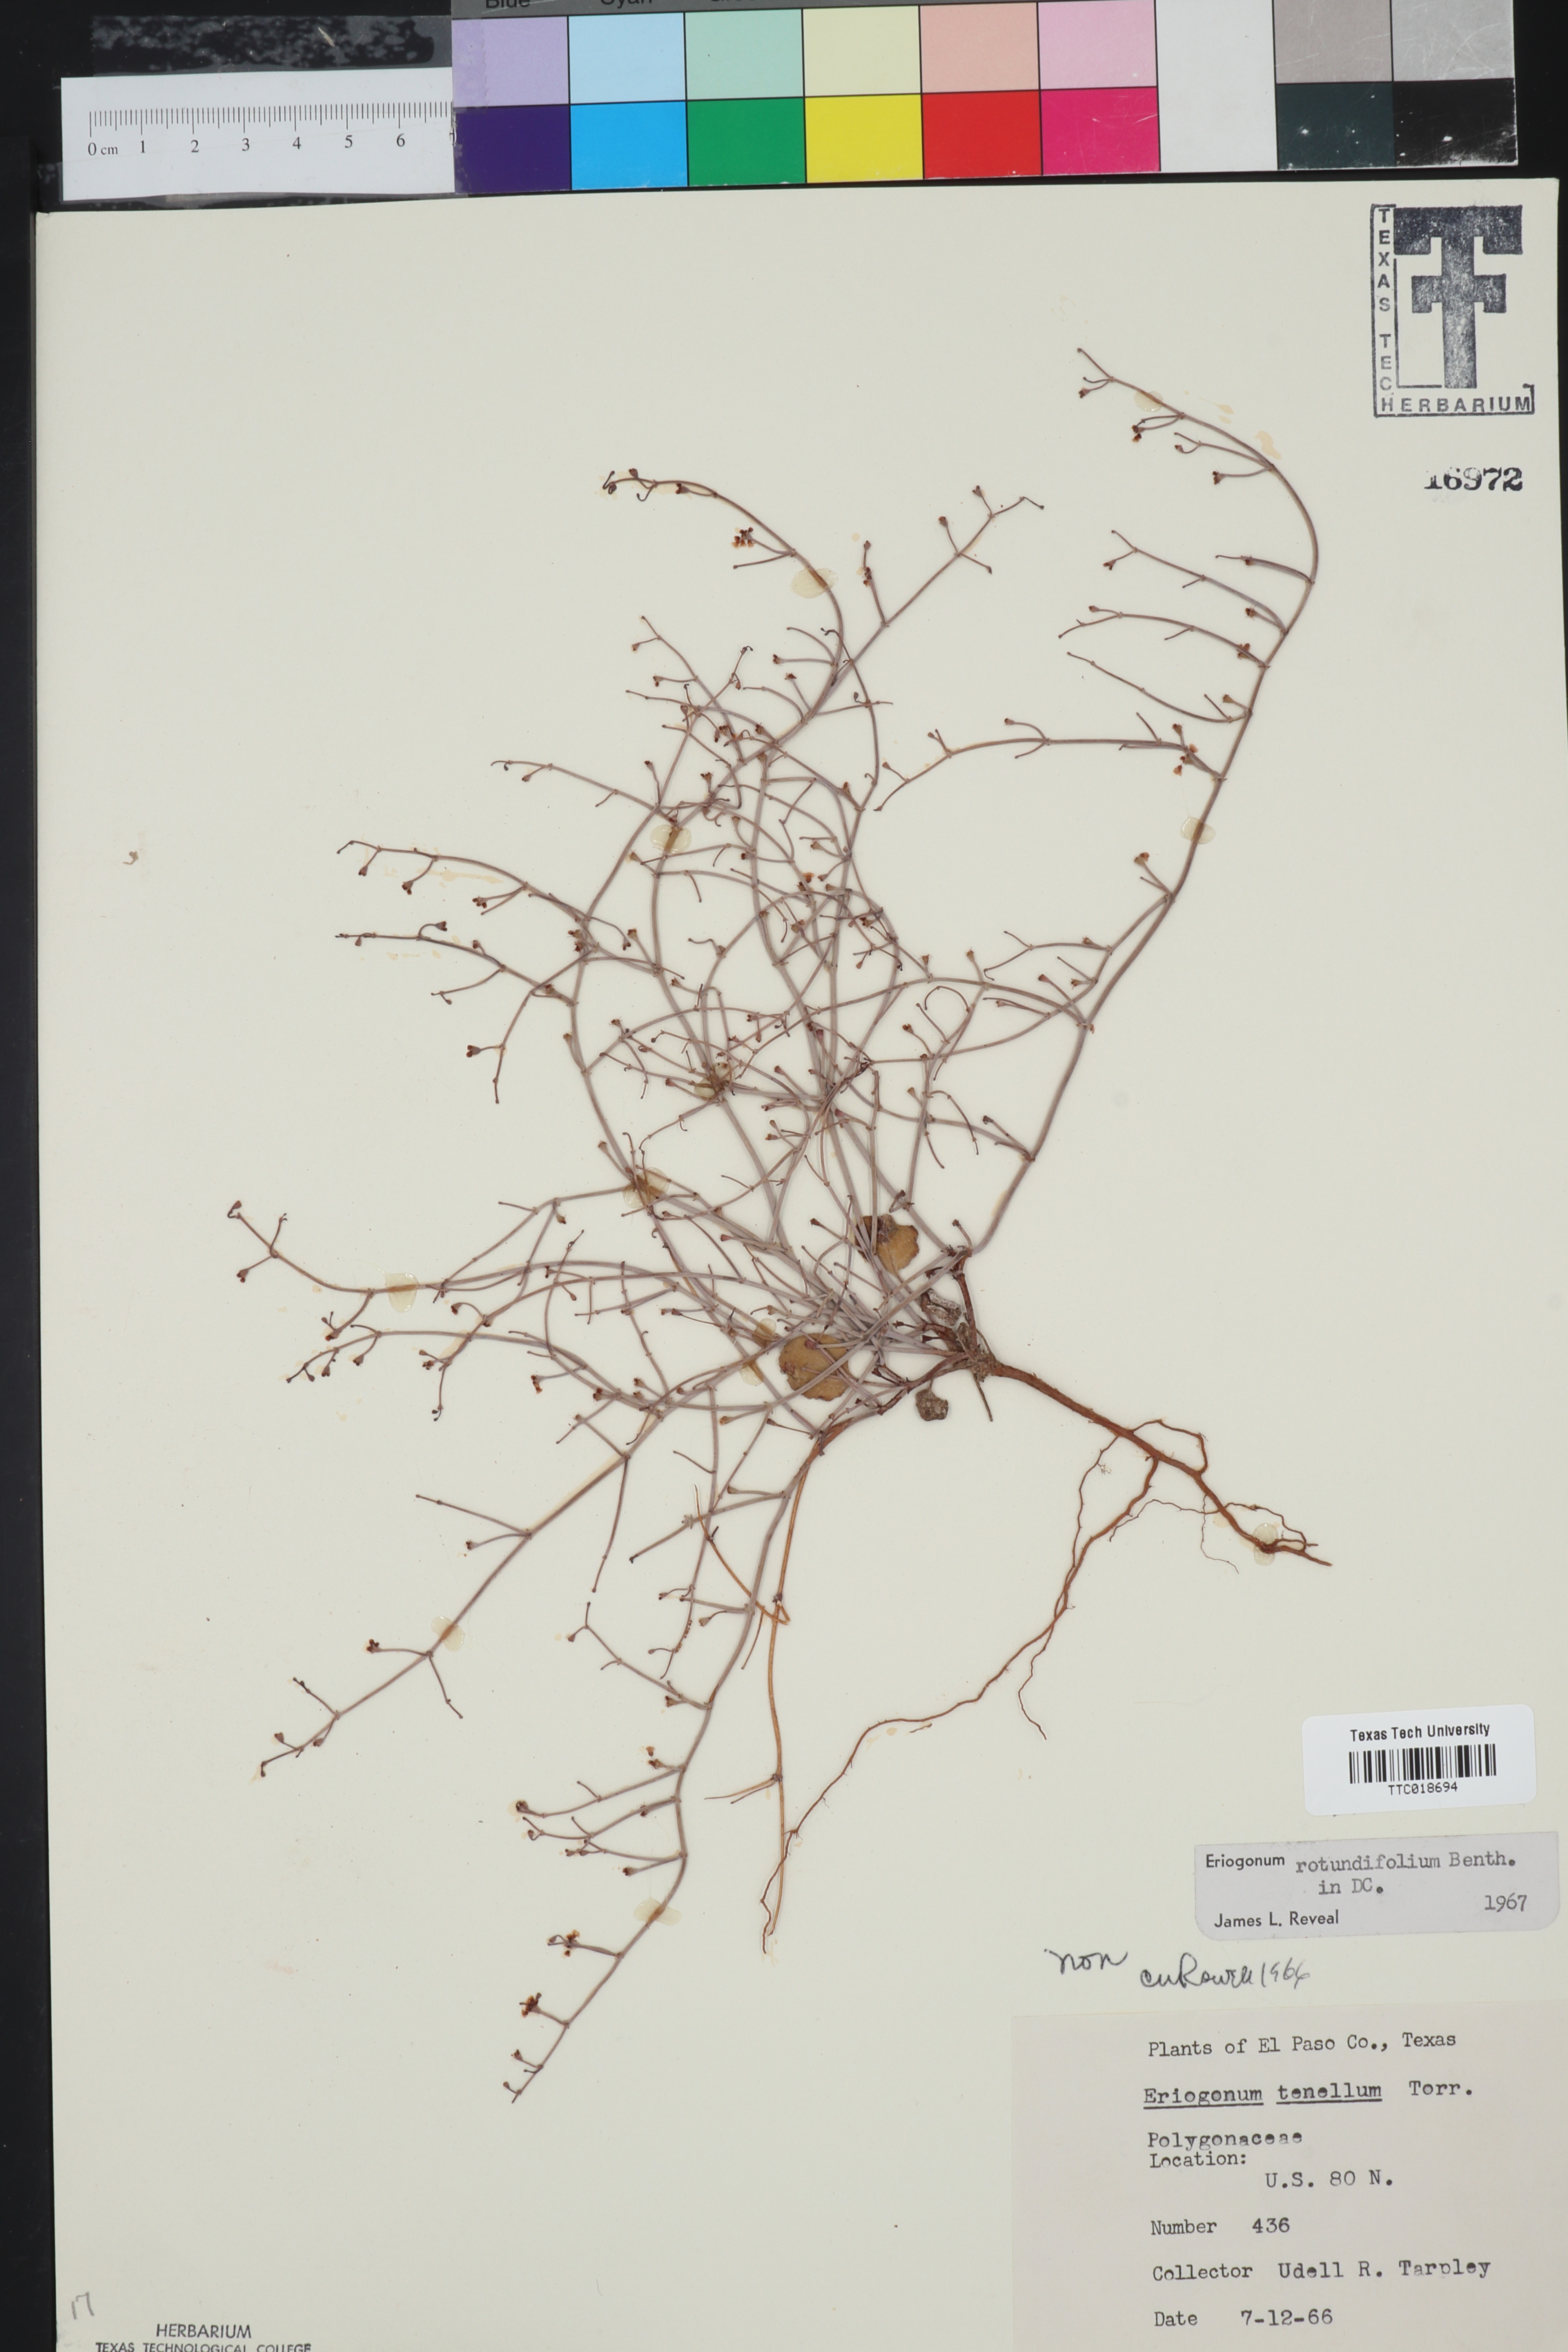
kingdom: Plantae
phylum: Tracheophyta
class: Magnoliopsida
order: Caryophyllales
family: Polygonaceae
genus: Eriogonum
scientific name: Eriogonum rotundifolium
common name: Round-leaf wild buckwheat
